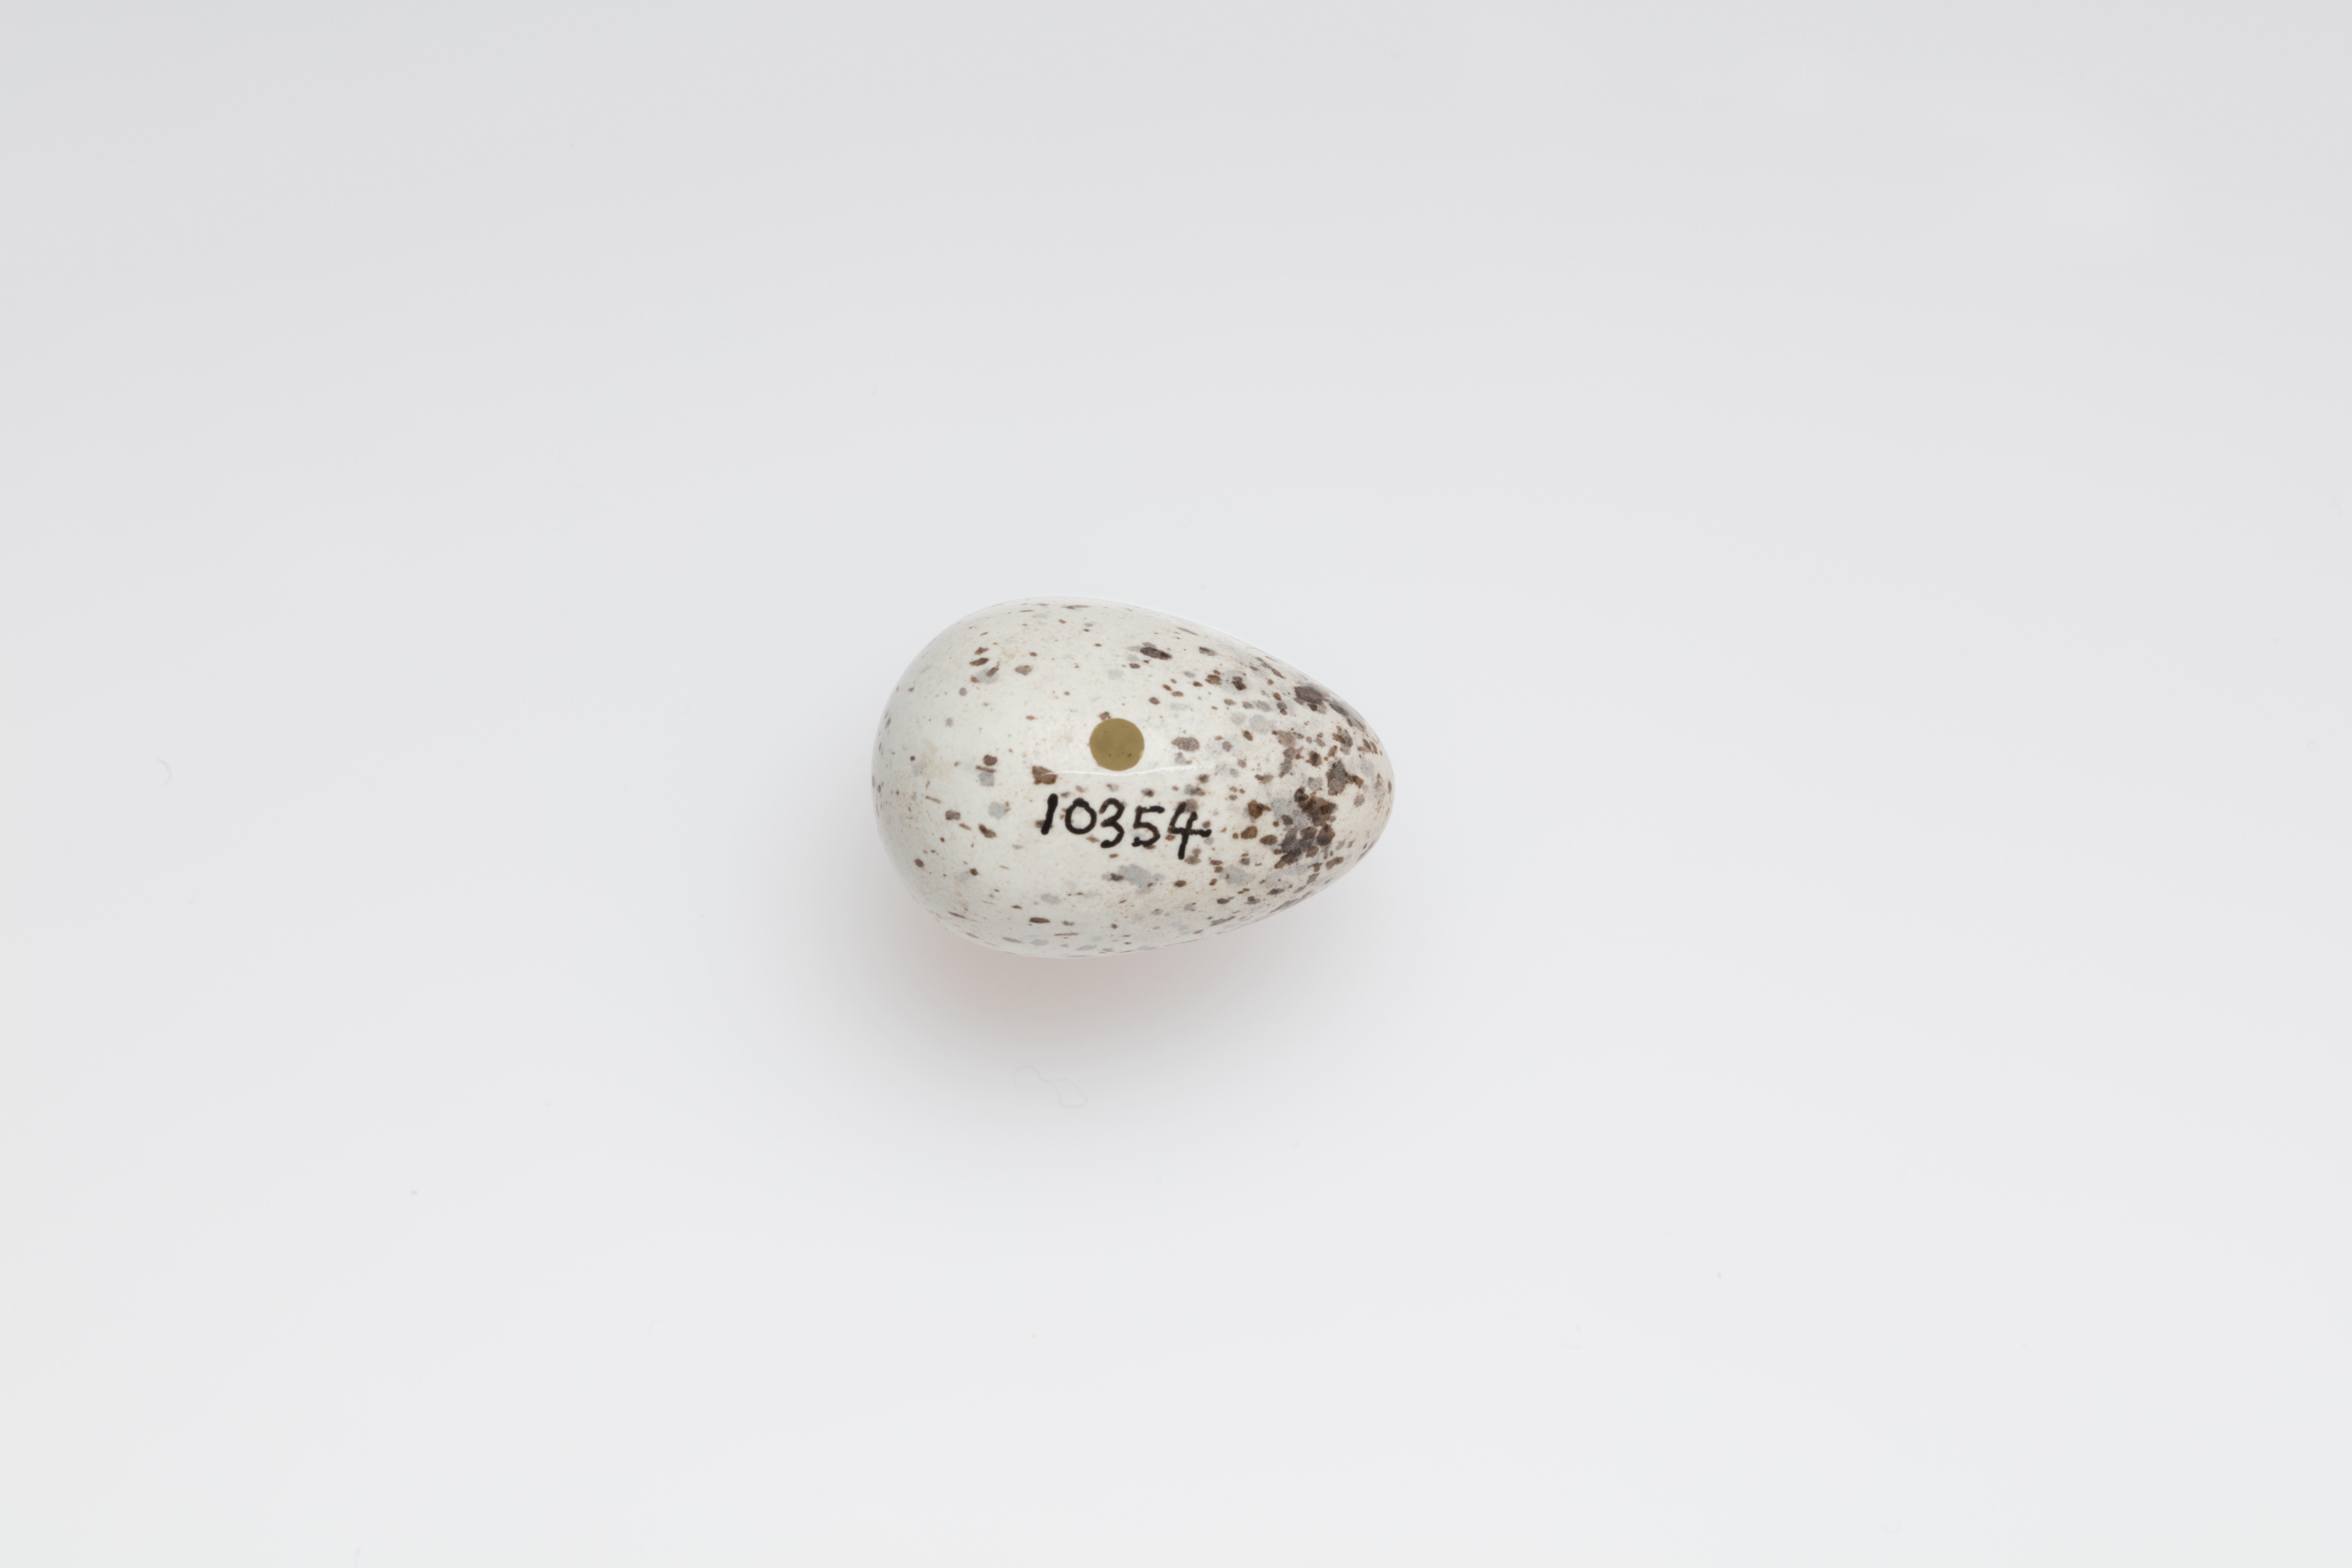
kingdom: Animalia
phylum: Chordata
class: Aves
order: Passeriformes
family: Passeridae
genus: Passer
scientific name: Passer domesticus
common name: House sparrow
